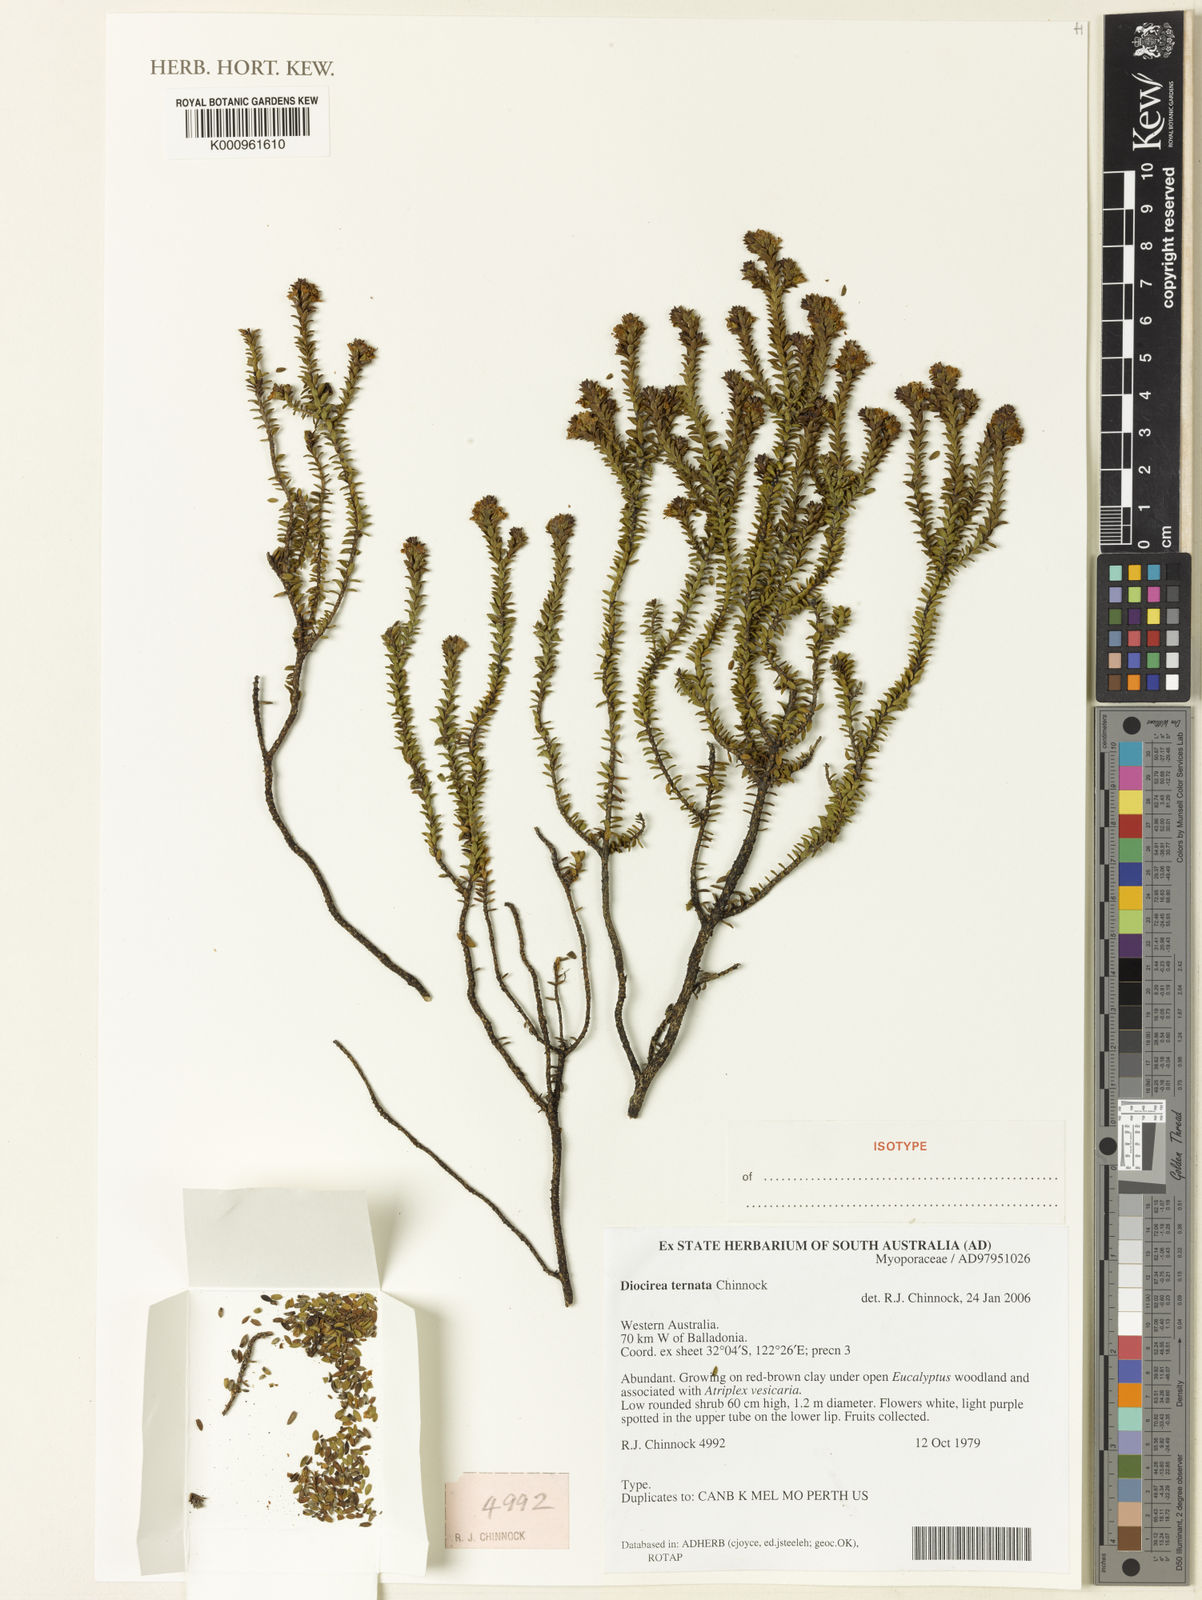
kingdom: Plantae
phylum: Tracheophyta
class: Magnoliopsida
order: Lamiales
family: Scrophulariaceae
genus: Eremophila
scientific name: Eremophila ternata
